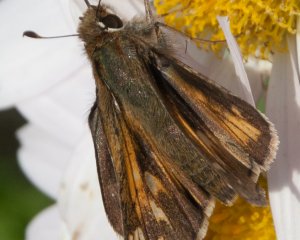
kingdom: Animalia
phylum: Arthropoda
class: Insecta
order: Lepidoptera
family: Hesperiidae
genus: Atalopedes
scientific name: Atalopedes campestris
